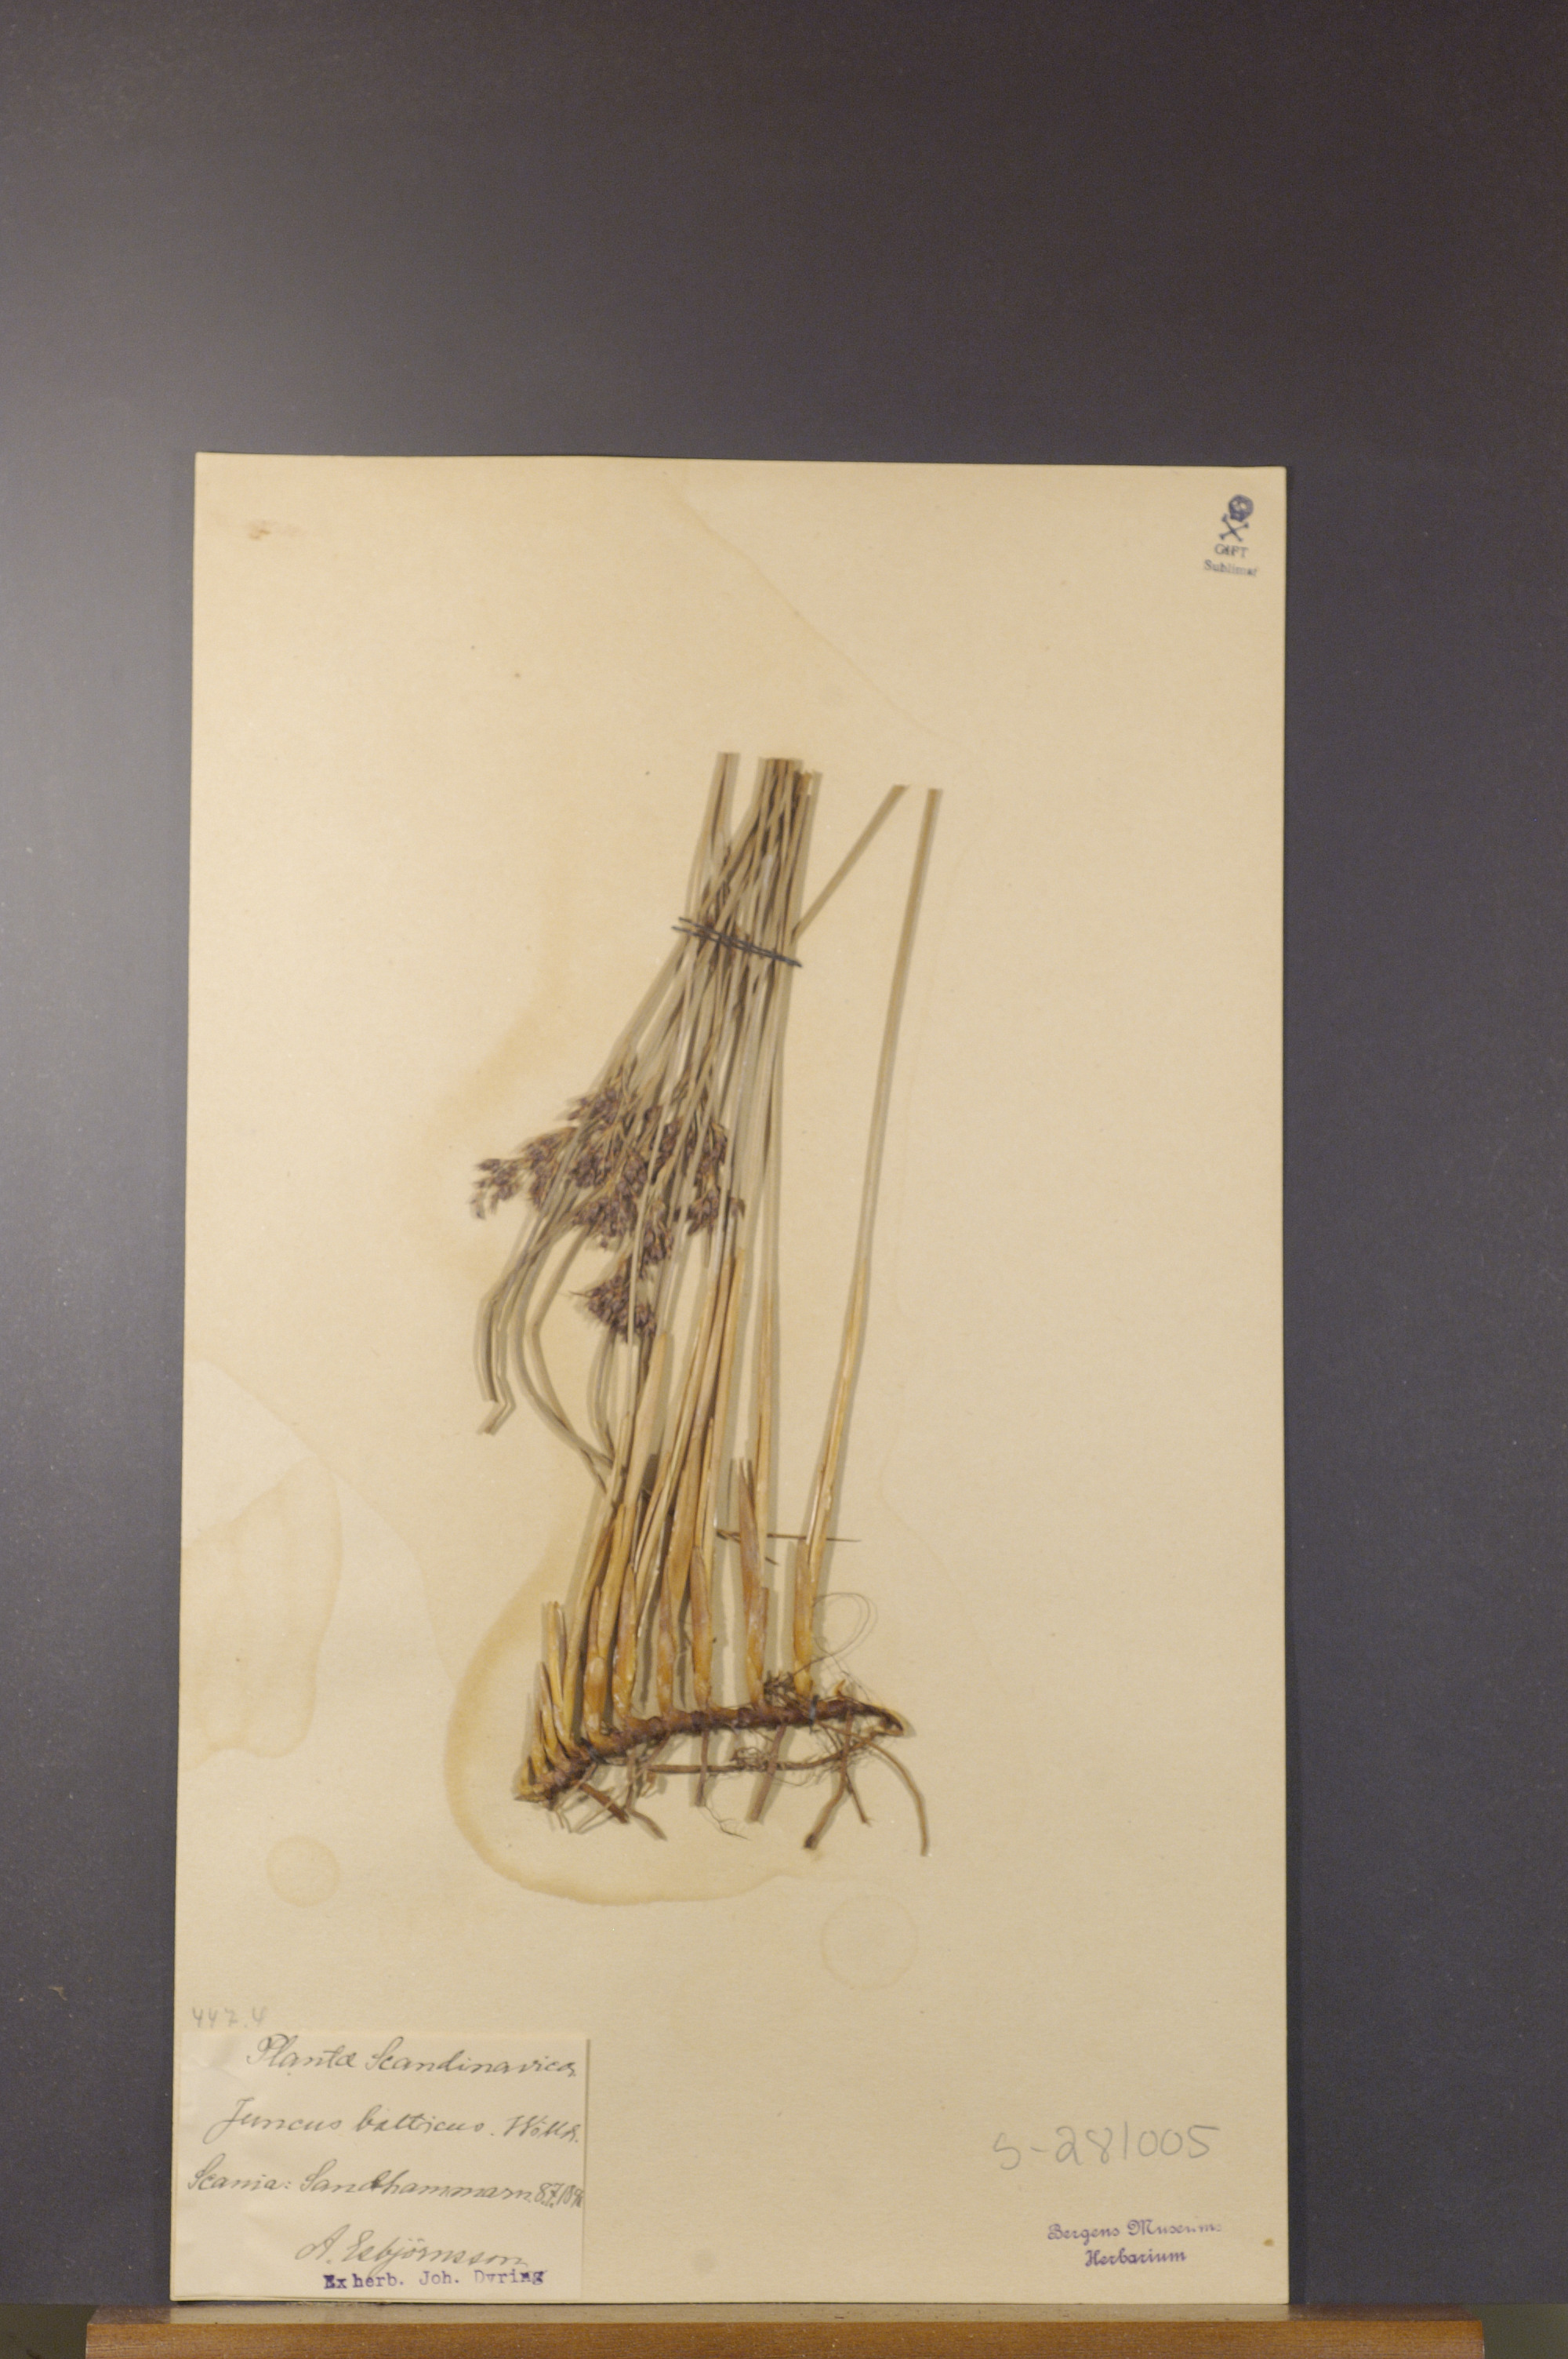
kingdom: Plantae
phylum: Tracheophyta
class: Liliopsida
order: Poales
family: Juncaceae
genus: Juncus
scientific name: Juncus balticus
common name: Baltic rush
